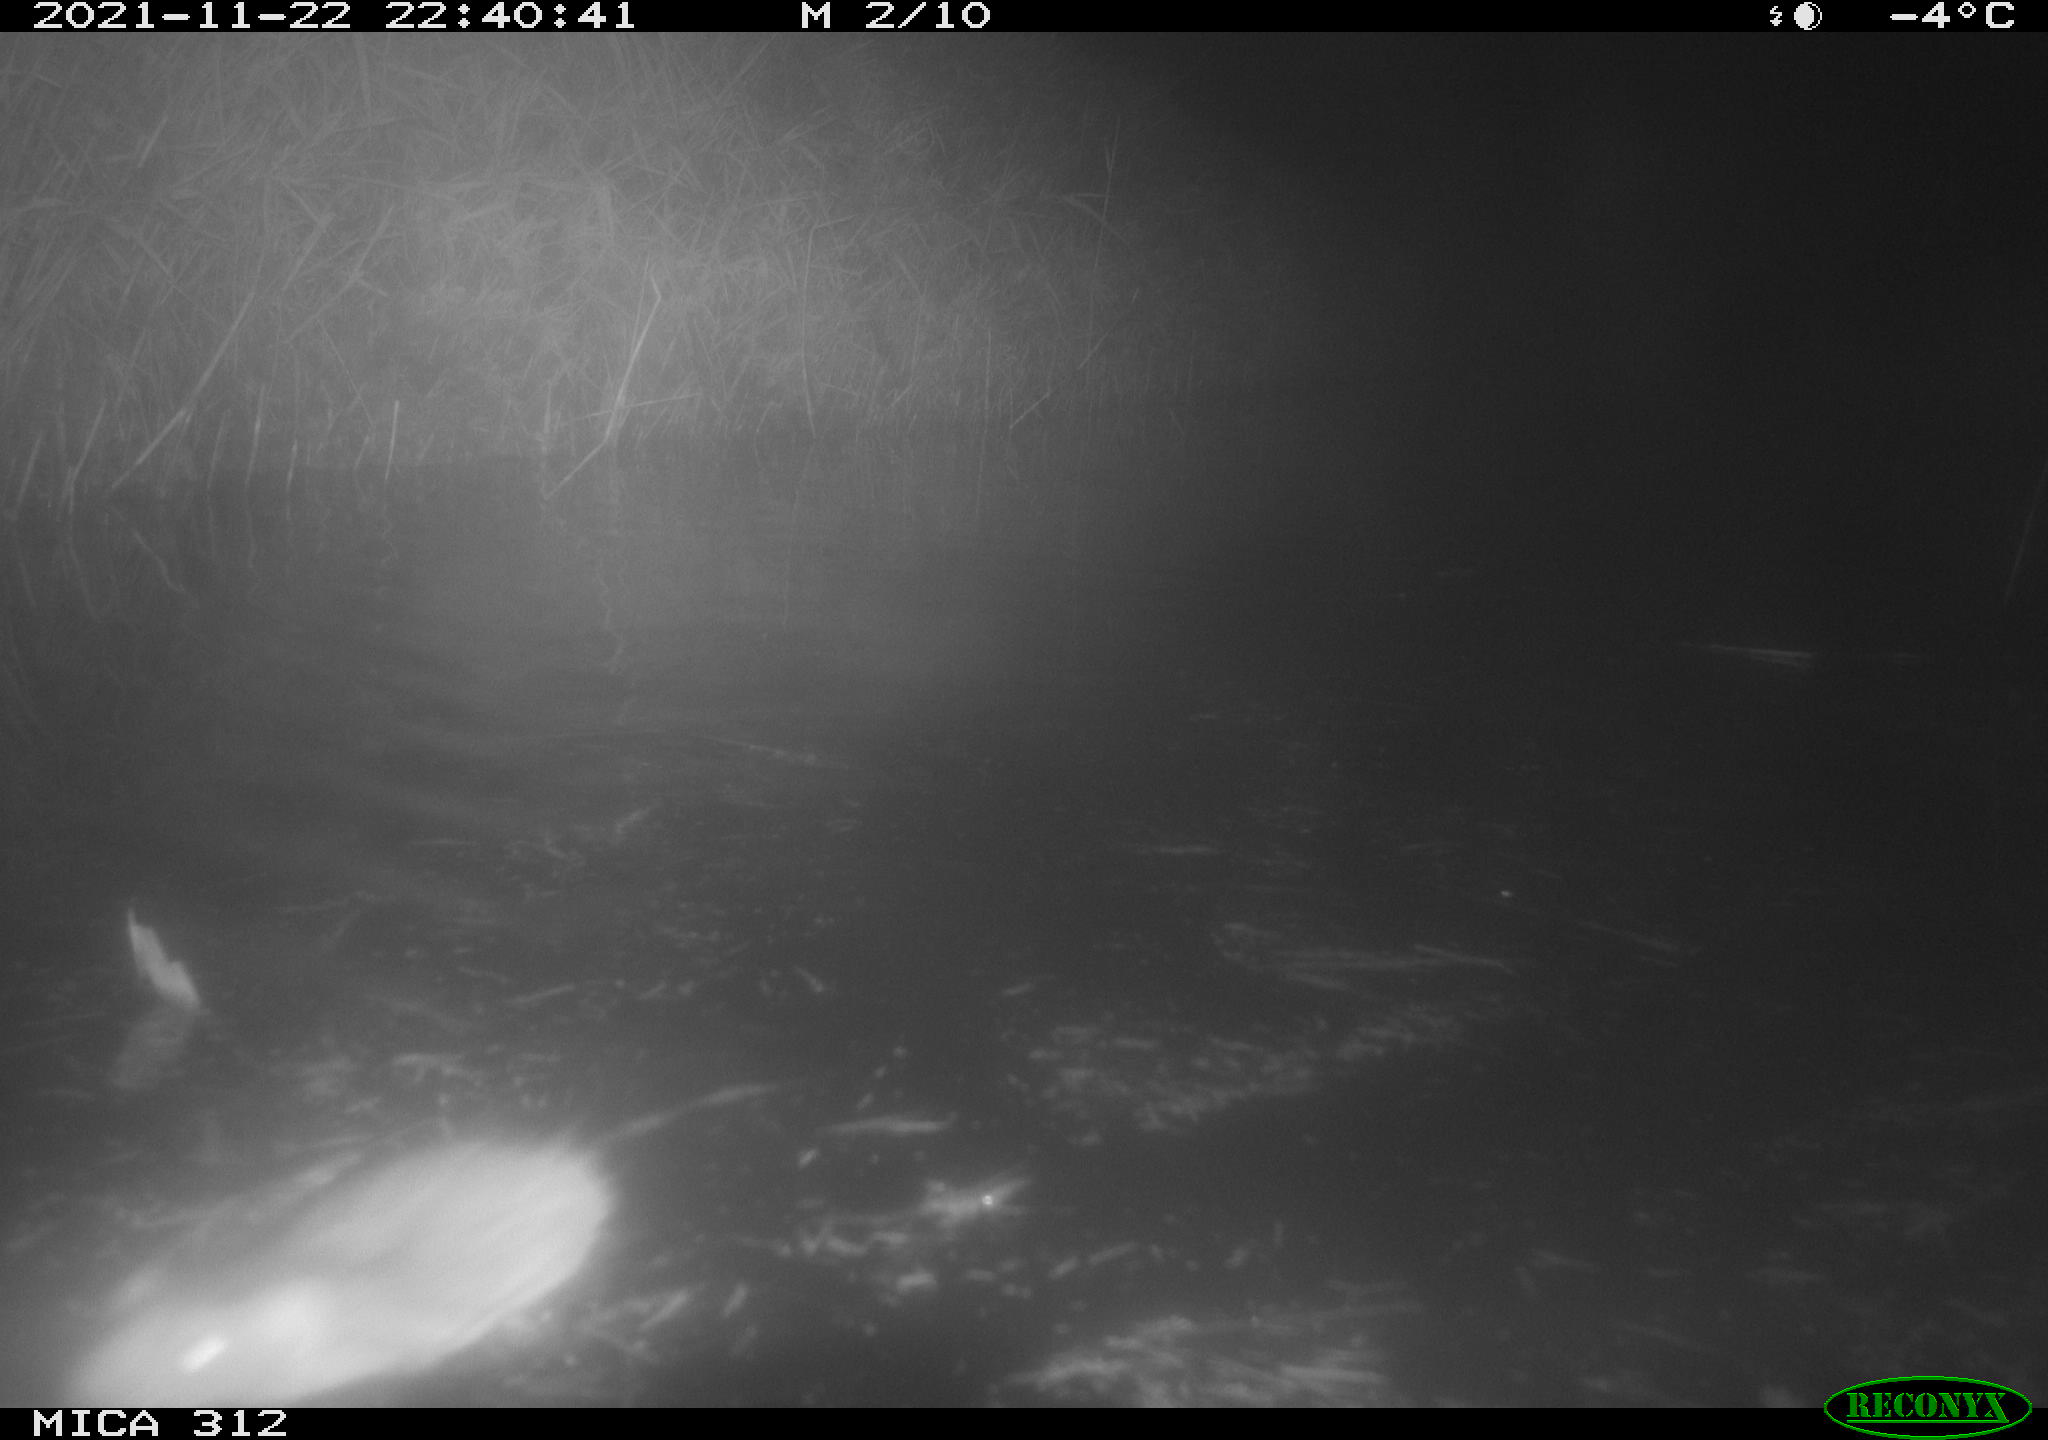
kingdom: Animalia
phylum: Chordata
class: Aves
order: Gruiformes
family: Rallidae
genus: Gallinula
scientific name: Gallinula chloropus
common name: Common moorhen
